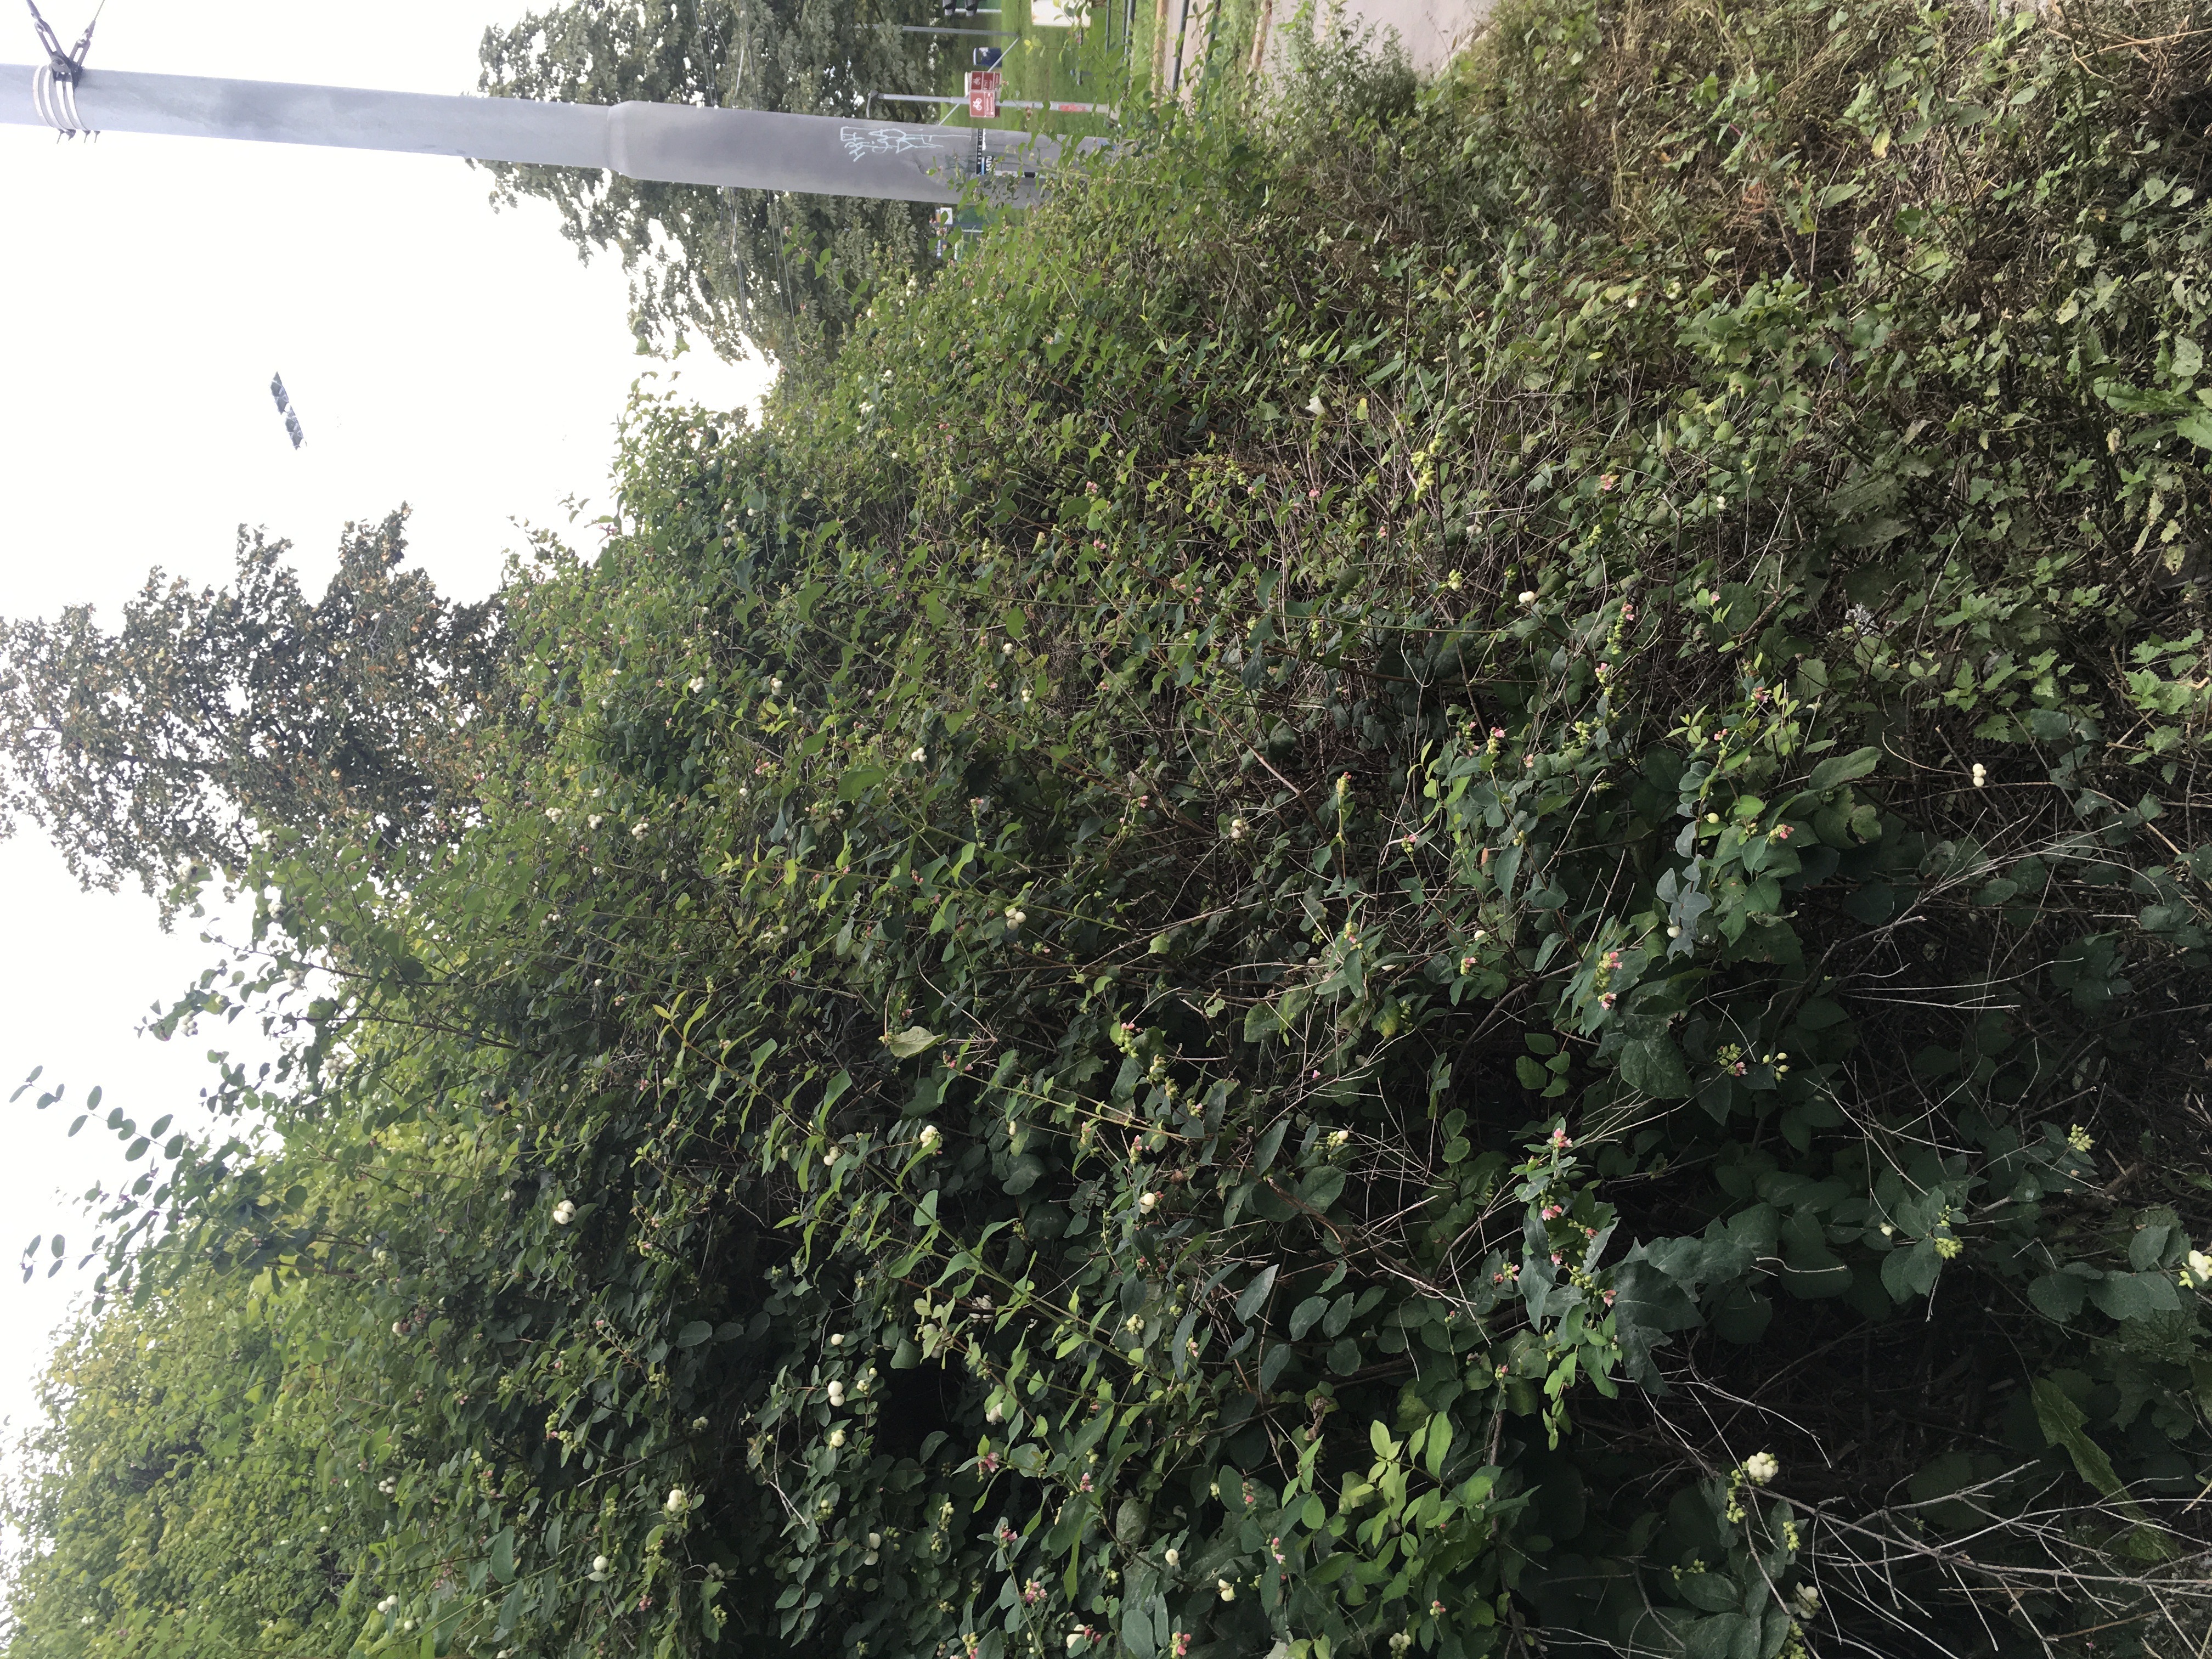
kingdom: Plantae
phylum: Tracheophyta
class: Magnoliopsida
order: Dipsacales
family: Caprifoliaceae
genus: Symphoricarpos
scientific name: Symphoricarpos albus
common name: snøbær
